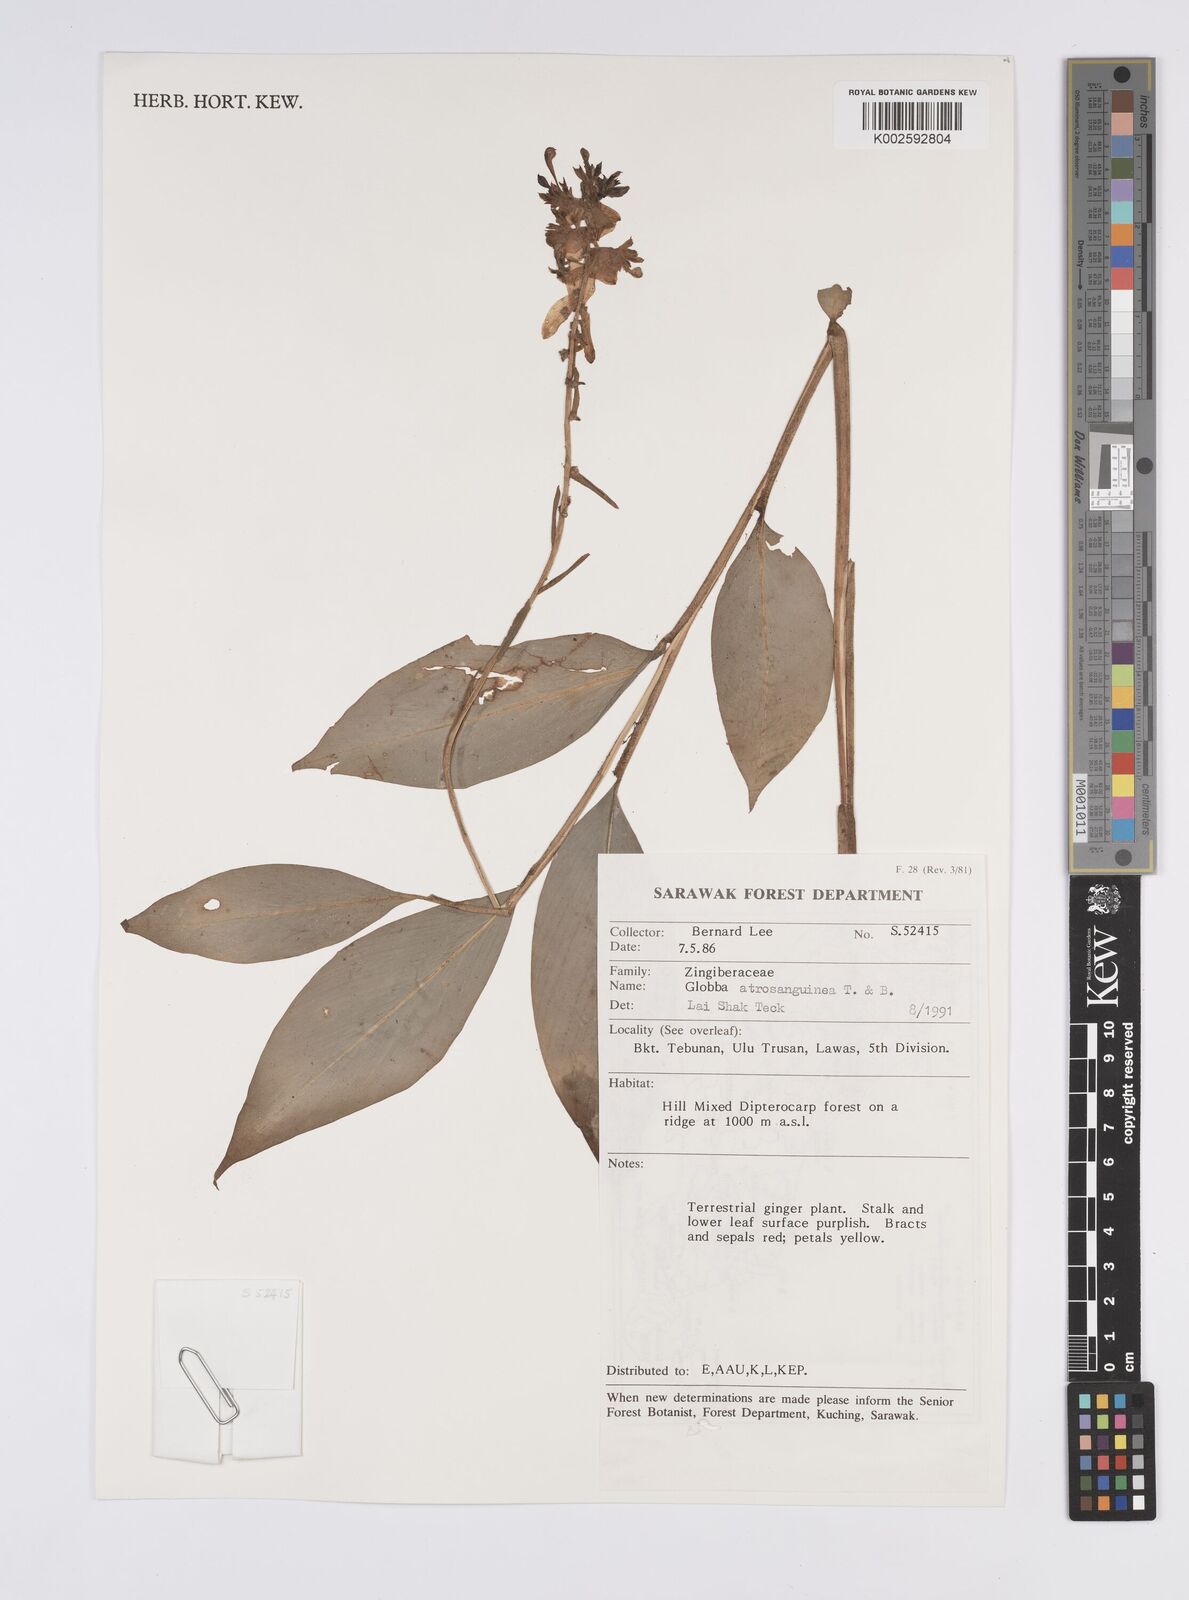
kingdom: Plantae
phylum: Tracheophyta
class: Liliopsida
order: Zingiberales
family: Zingiberaceae
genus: Globba
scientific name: Globba atrosanguinea
